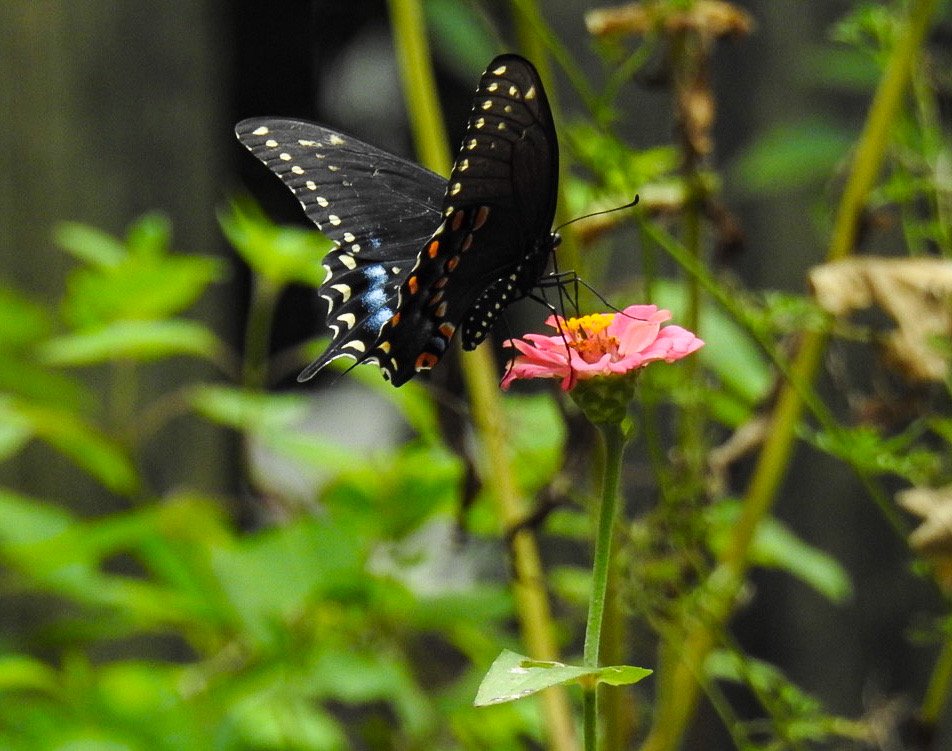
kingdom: Animalia
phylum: Arthropoda
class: Insecta
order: Lepidoptera
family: Papilionidae
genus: Papilio
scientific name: Papilio polyxenes
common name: Black Swallowtail
